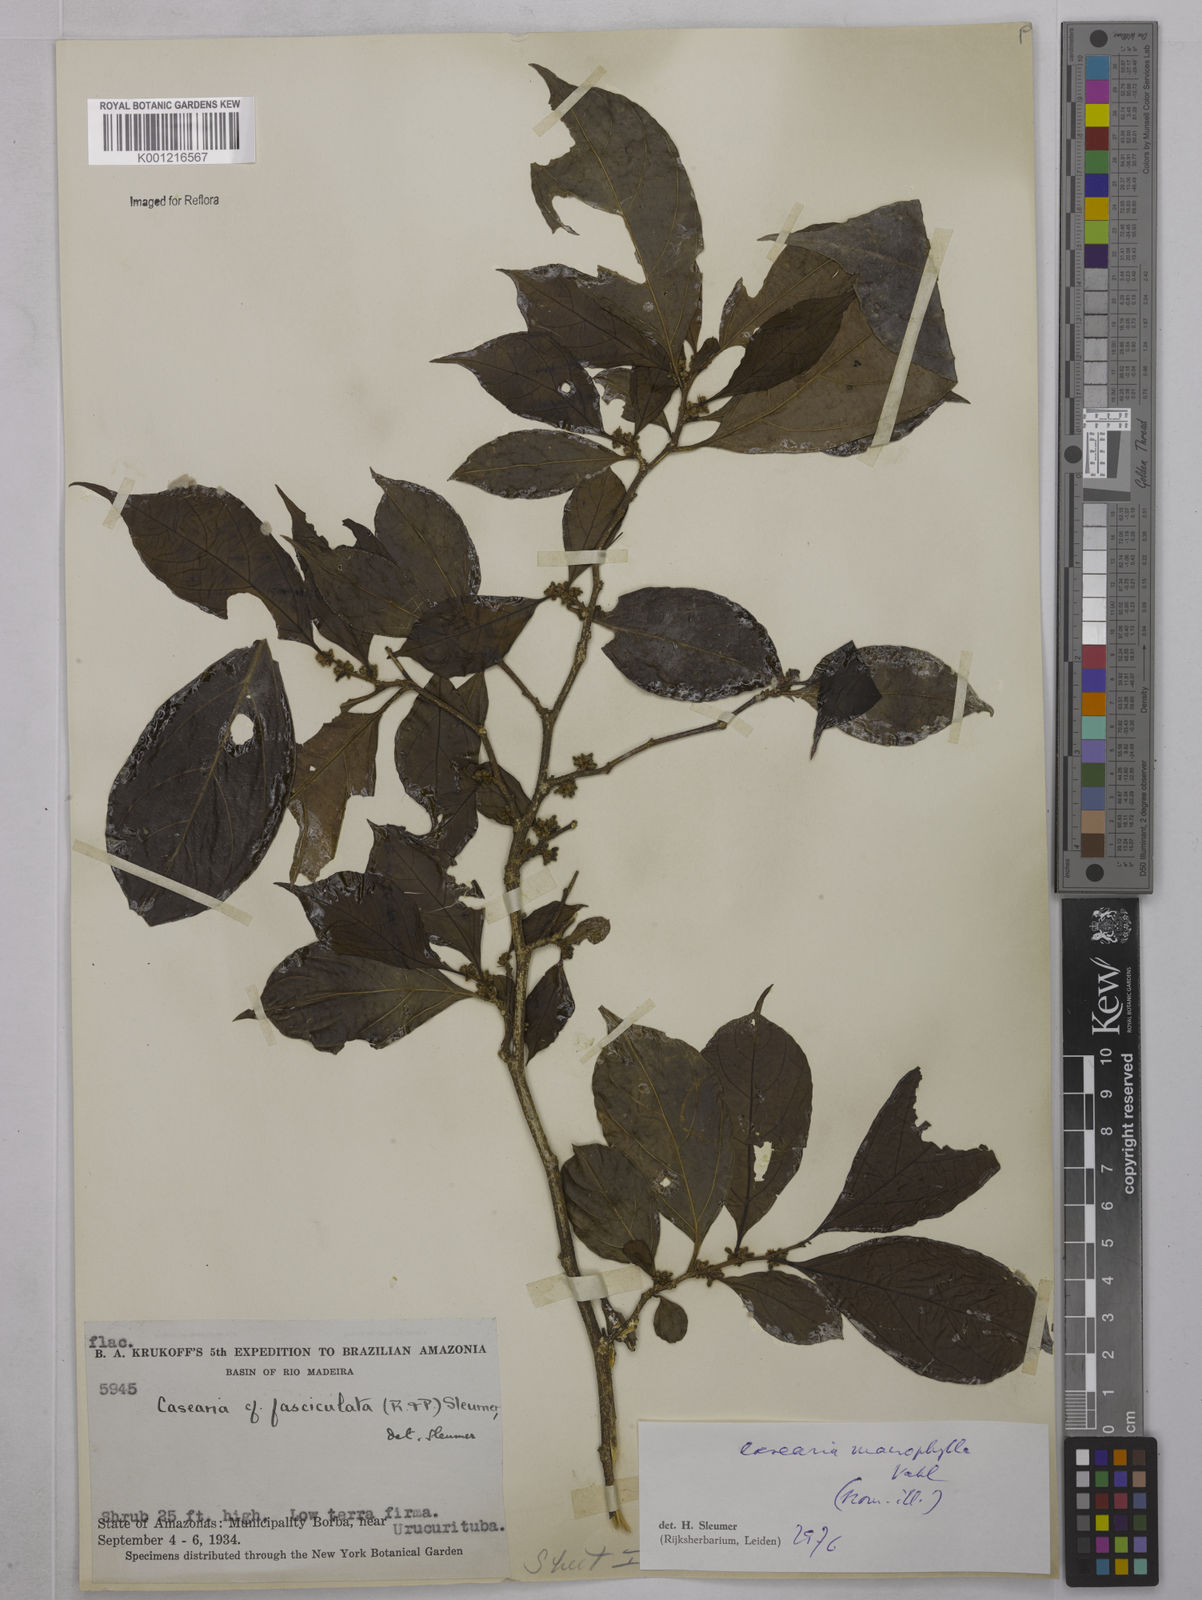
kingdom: Plantae
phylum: Tracheophyta
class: Magnoliopsida
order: Malpighiales
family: Salicaceae
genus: Casearia
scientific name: Casearia pitumba
